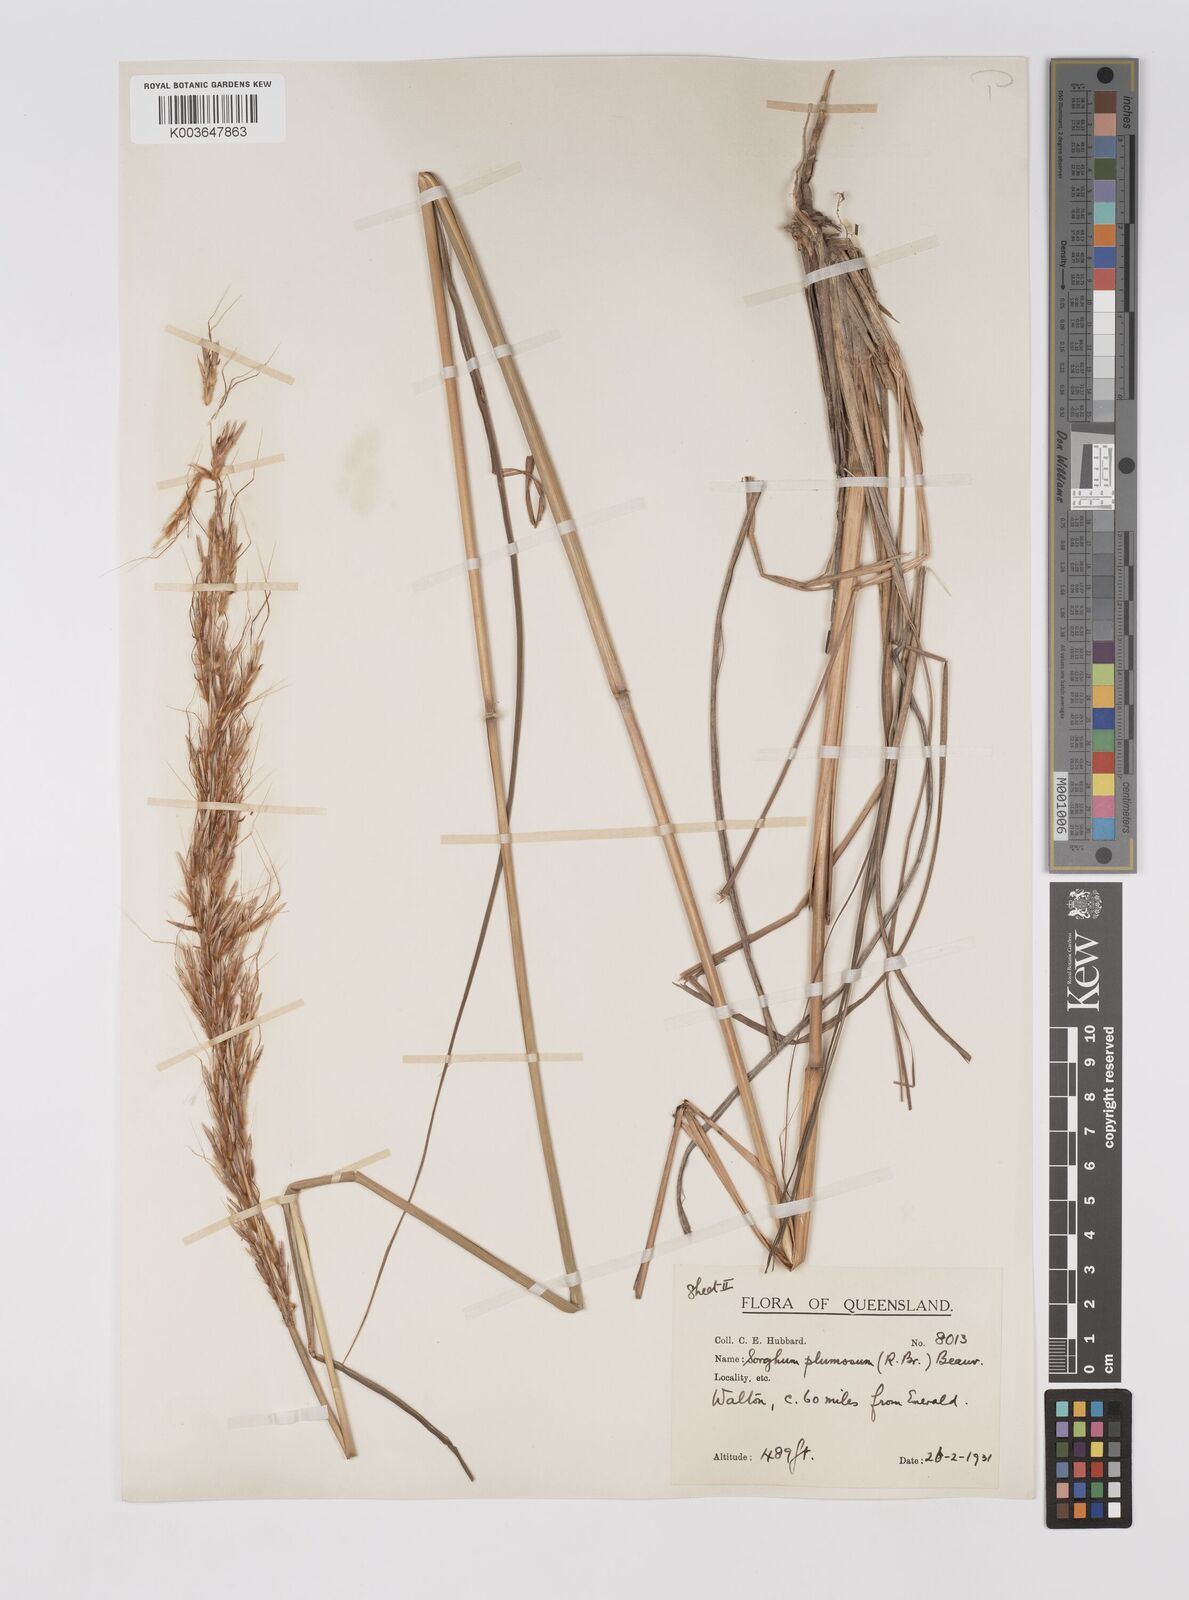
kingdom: Plantae
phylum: Tracheophyta
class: Liliopsida
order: Poales
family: Poaceae
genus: Sarga
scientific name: Sarga plumosa
